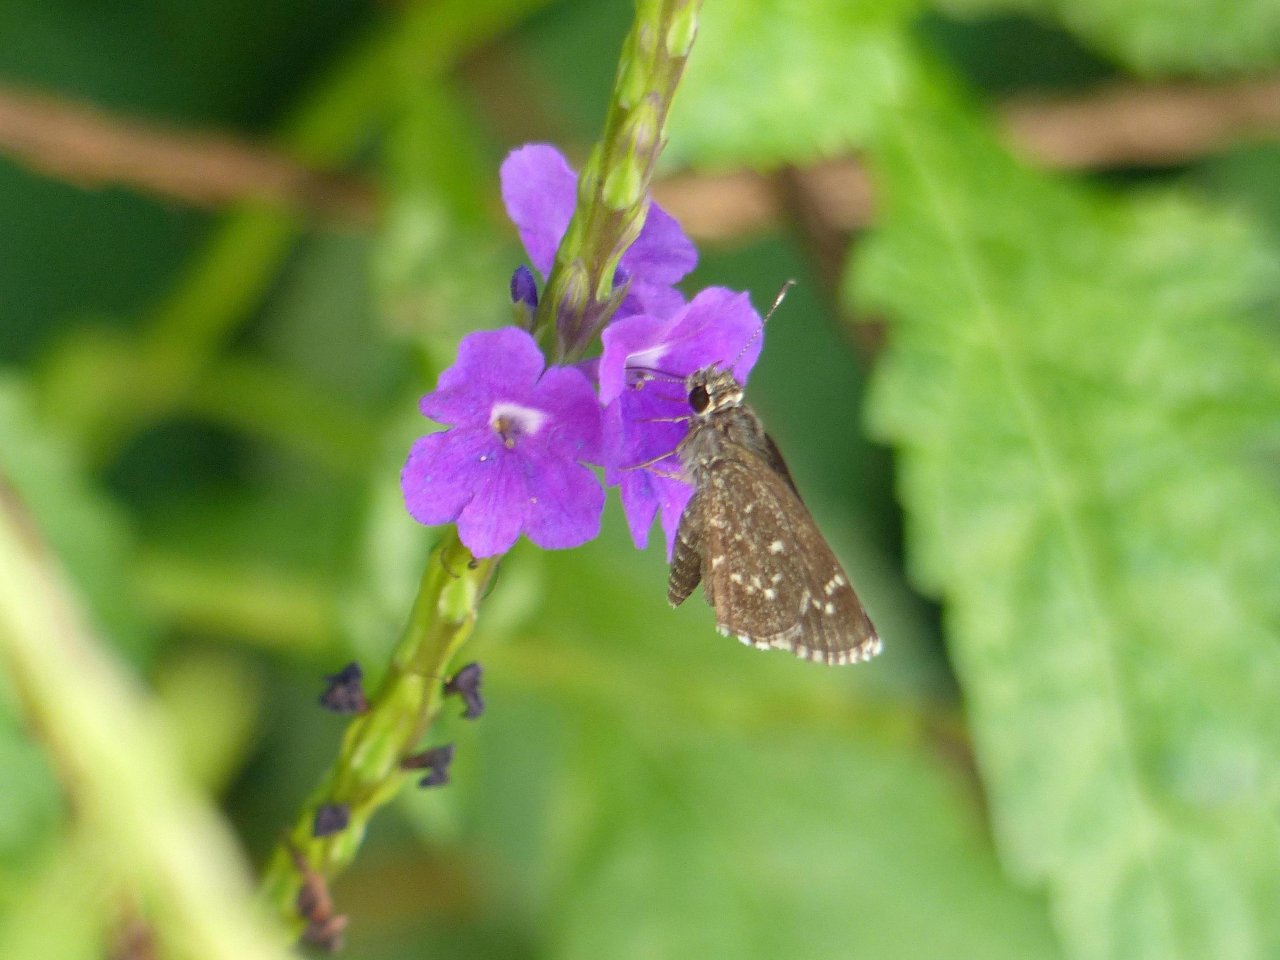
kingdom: Animalia
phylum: Arthropoda
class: Insecta
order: Lepidoptera
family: Hesperiidae
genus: Mastor
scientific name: Mastor celia
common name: Celia's Roadside-Skipper
